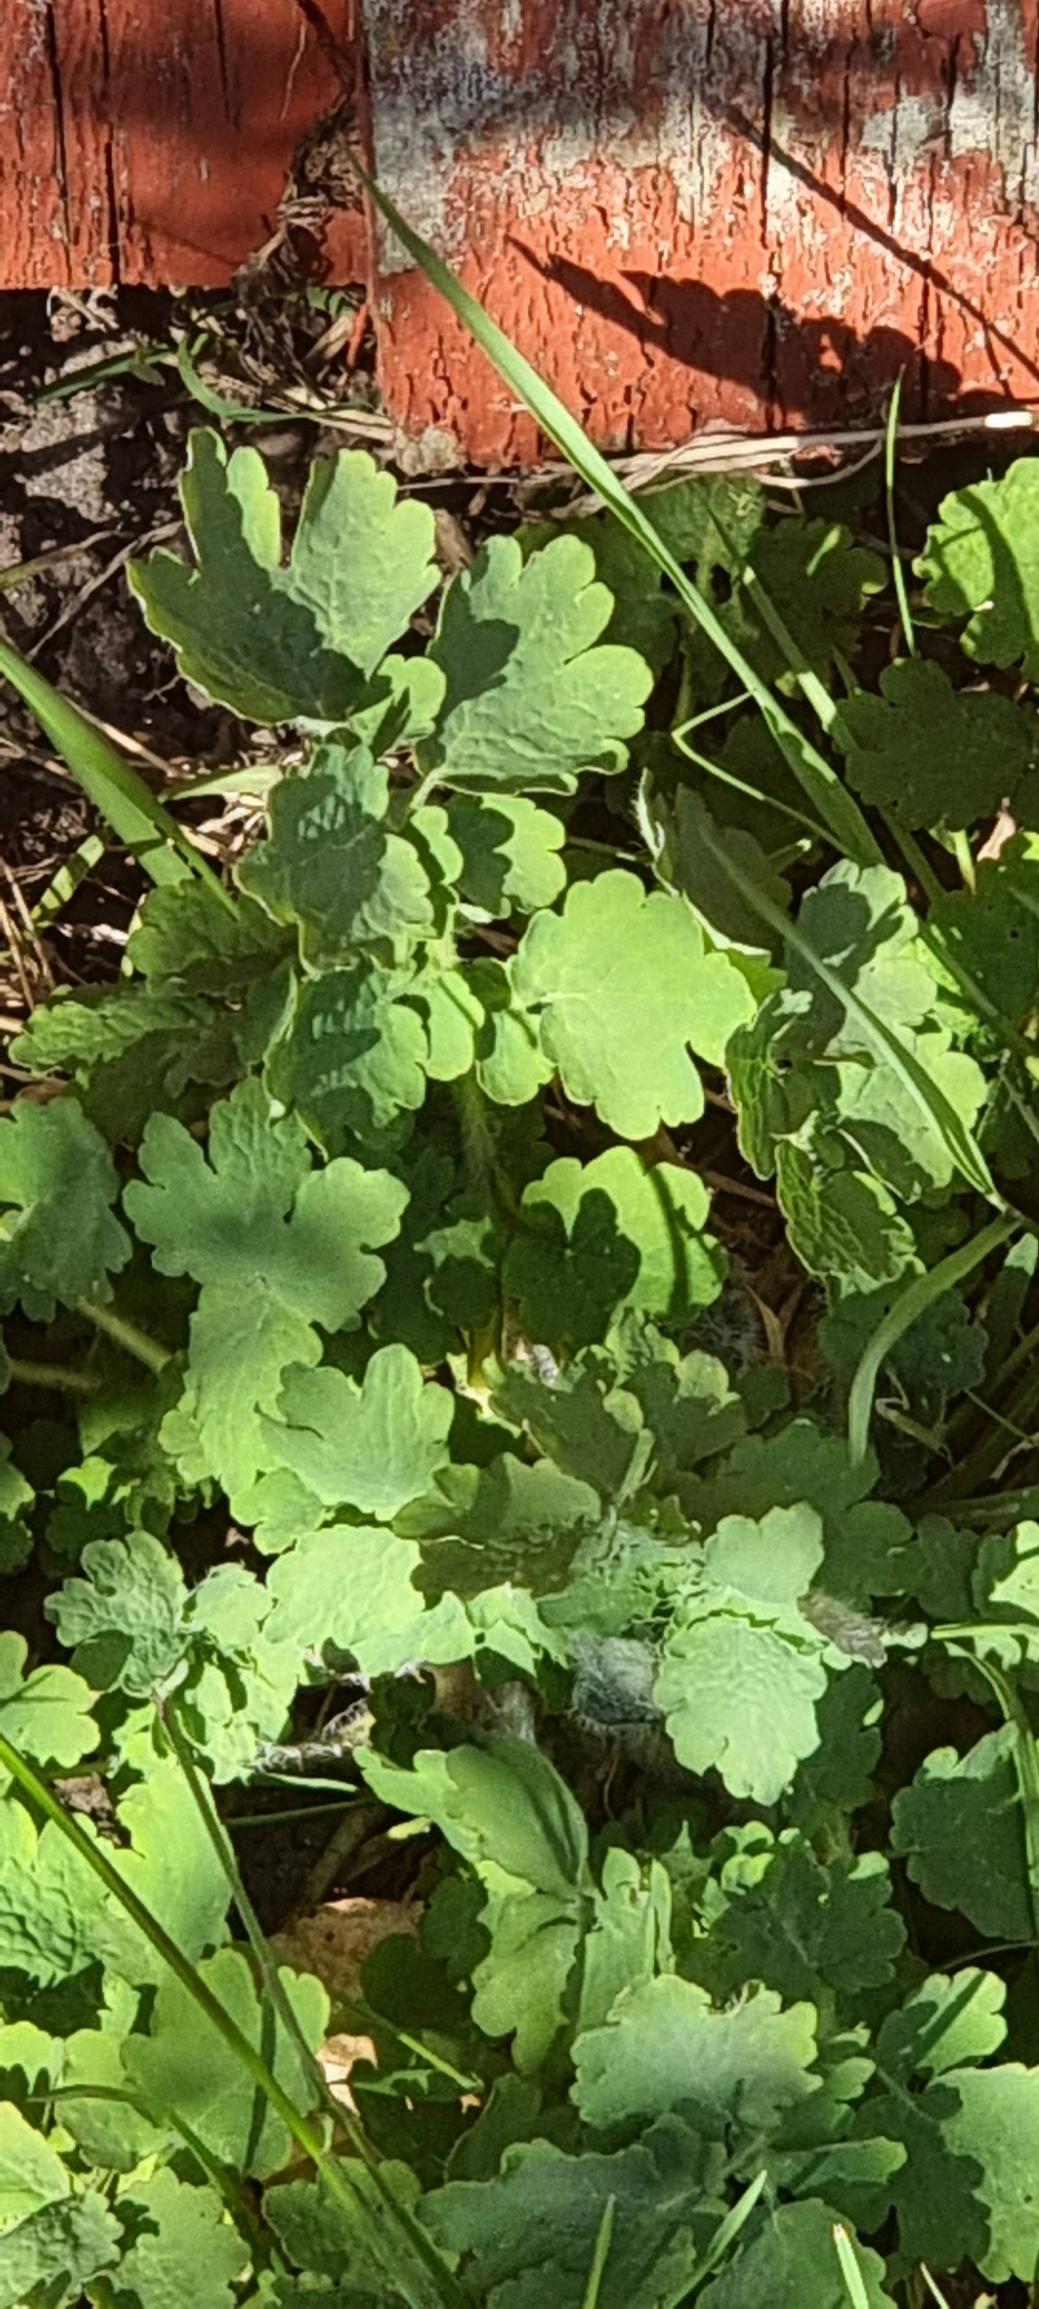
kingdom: Plantae
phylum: Tracheophyta
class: Magnoliopsida
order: Ranunculales
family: Papaveraceae
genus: Chelidonium
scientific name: Chelidonium majus
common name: Svaleurt
